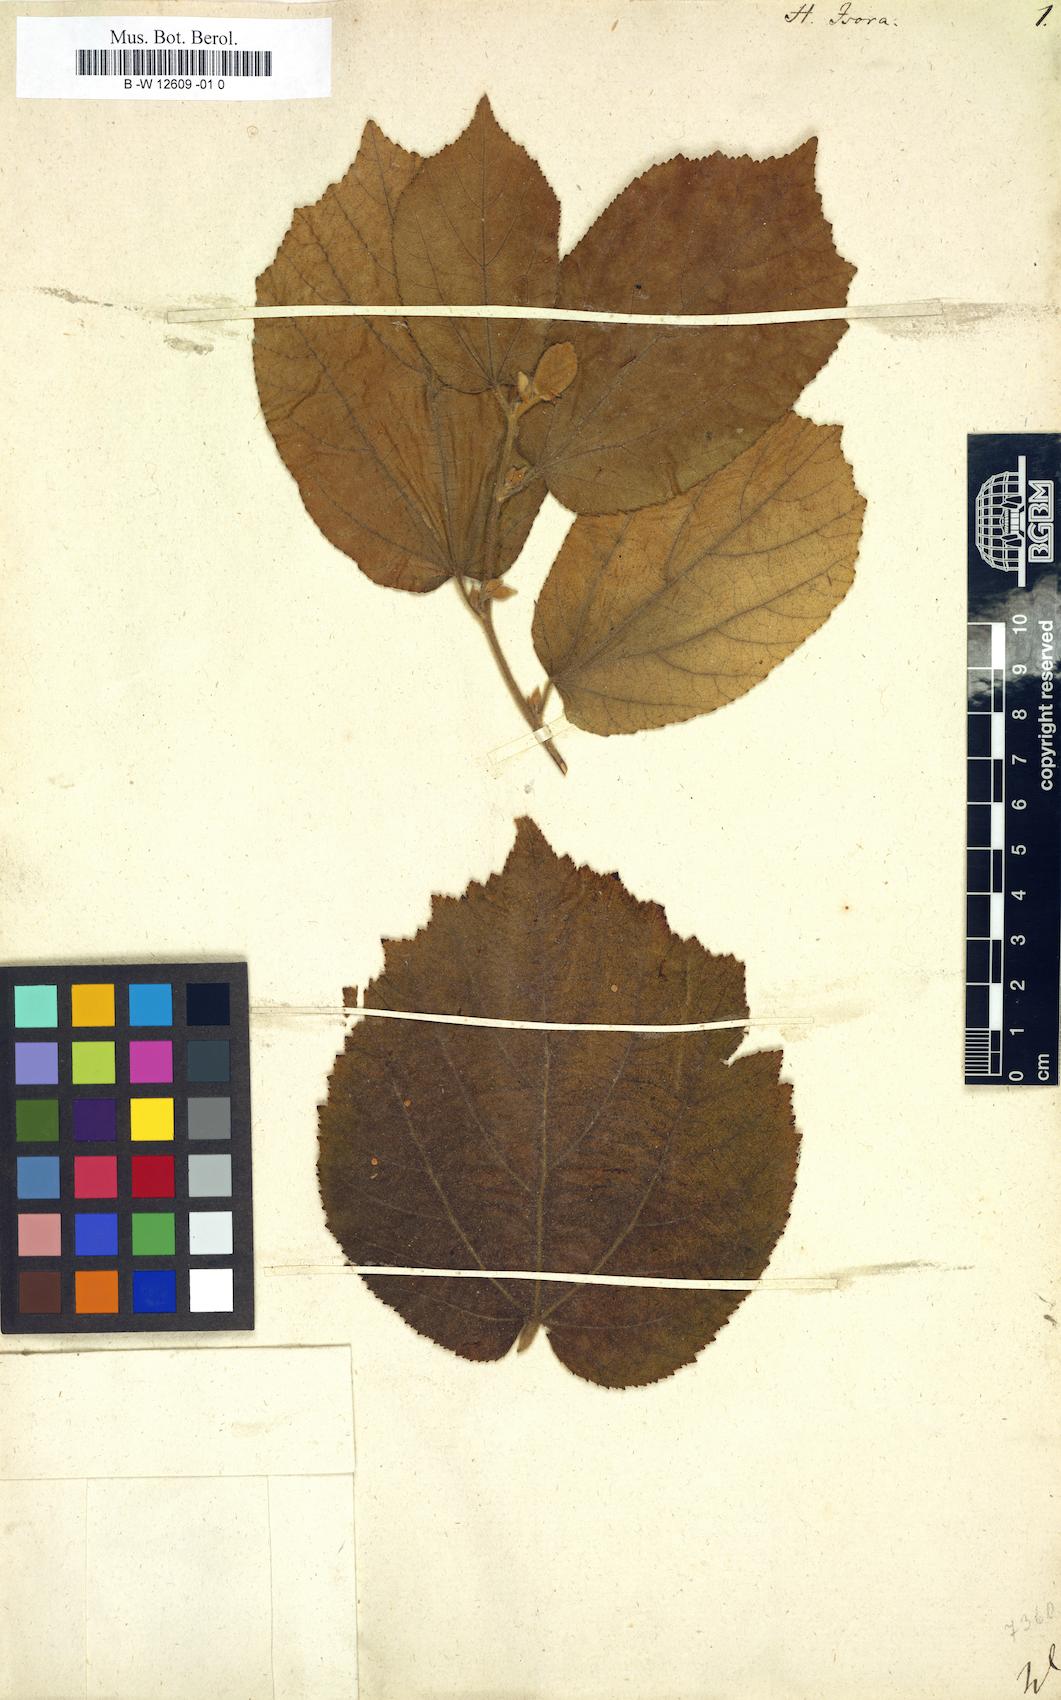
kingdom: Plantae
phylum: Tracheophyta
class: Magnoliopsida
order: Malvales
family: Malvaceae
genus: Helicteres
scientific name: Helicteres isora
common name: East indian screwtree
